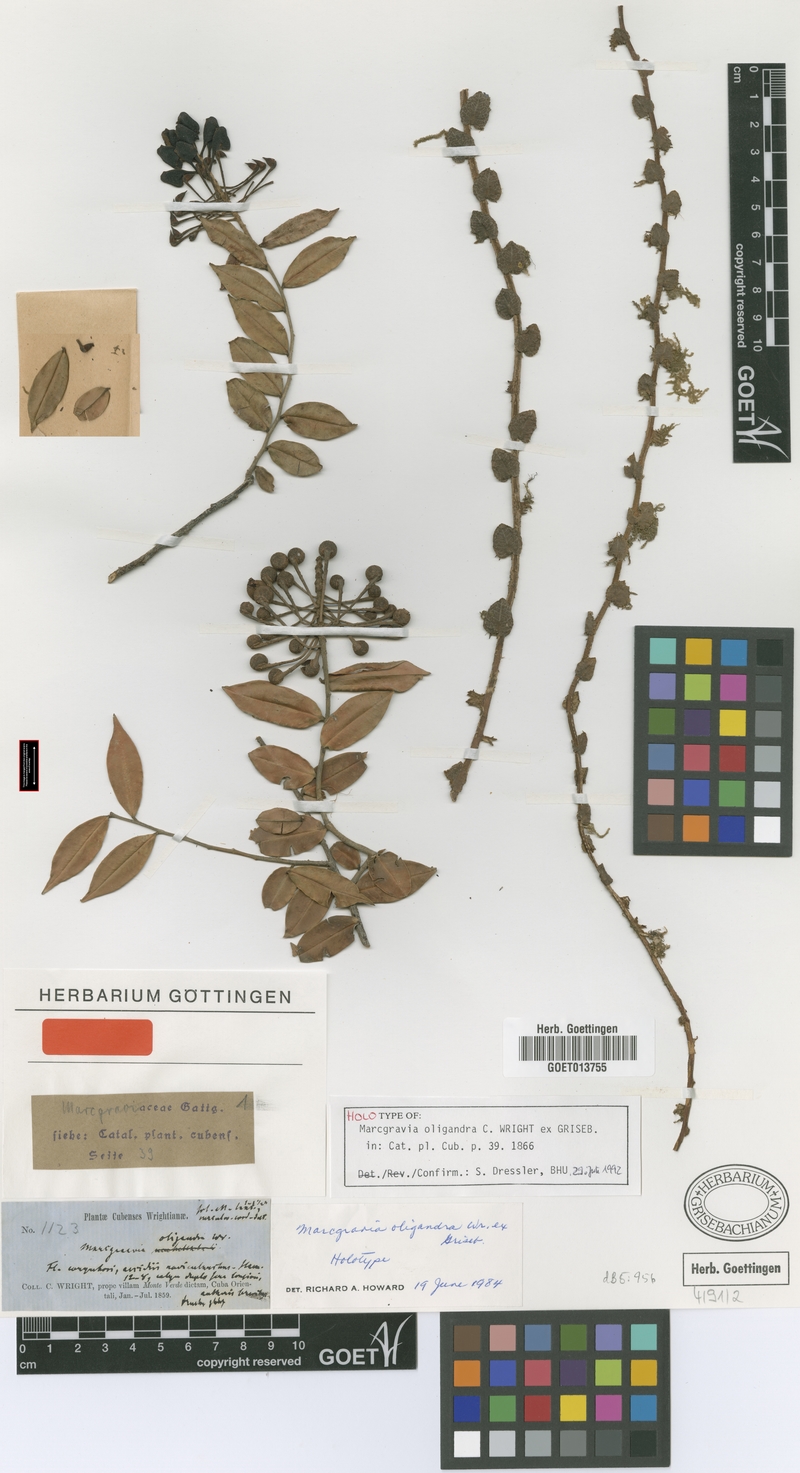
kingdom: Plantae
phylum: Tracheophyta
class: Magnoliopsida
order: Ericales
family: Marcgraviaceae
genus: Marcgravia
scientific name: Marcgravia oligandra
